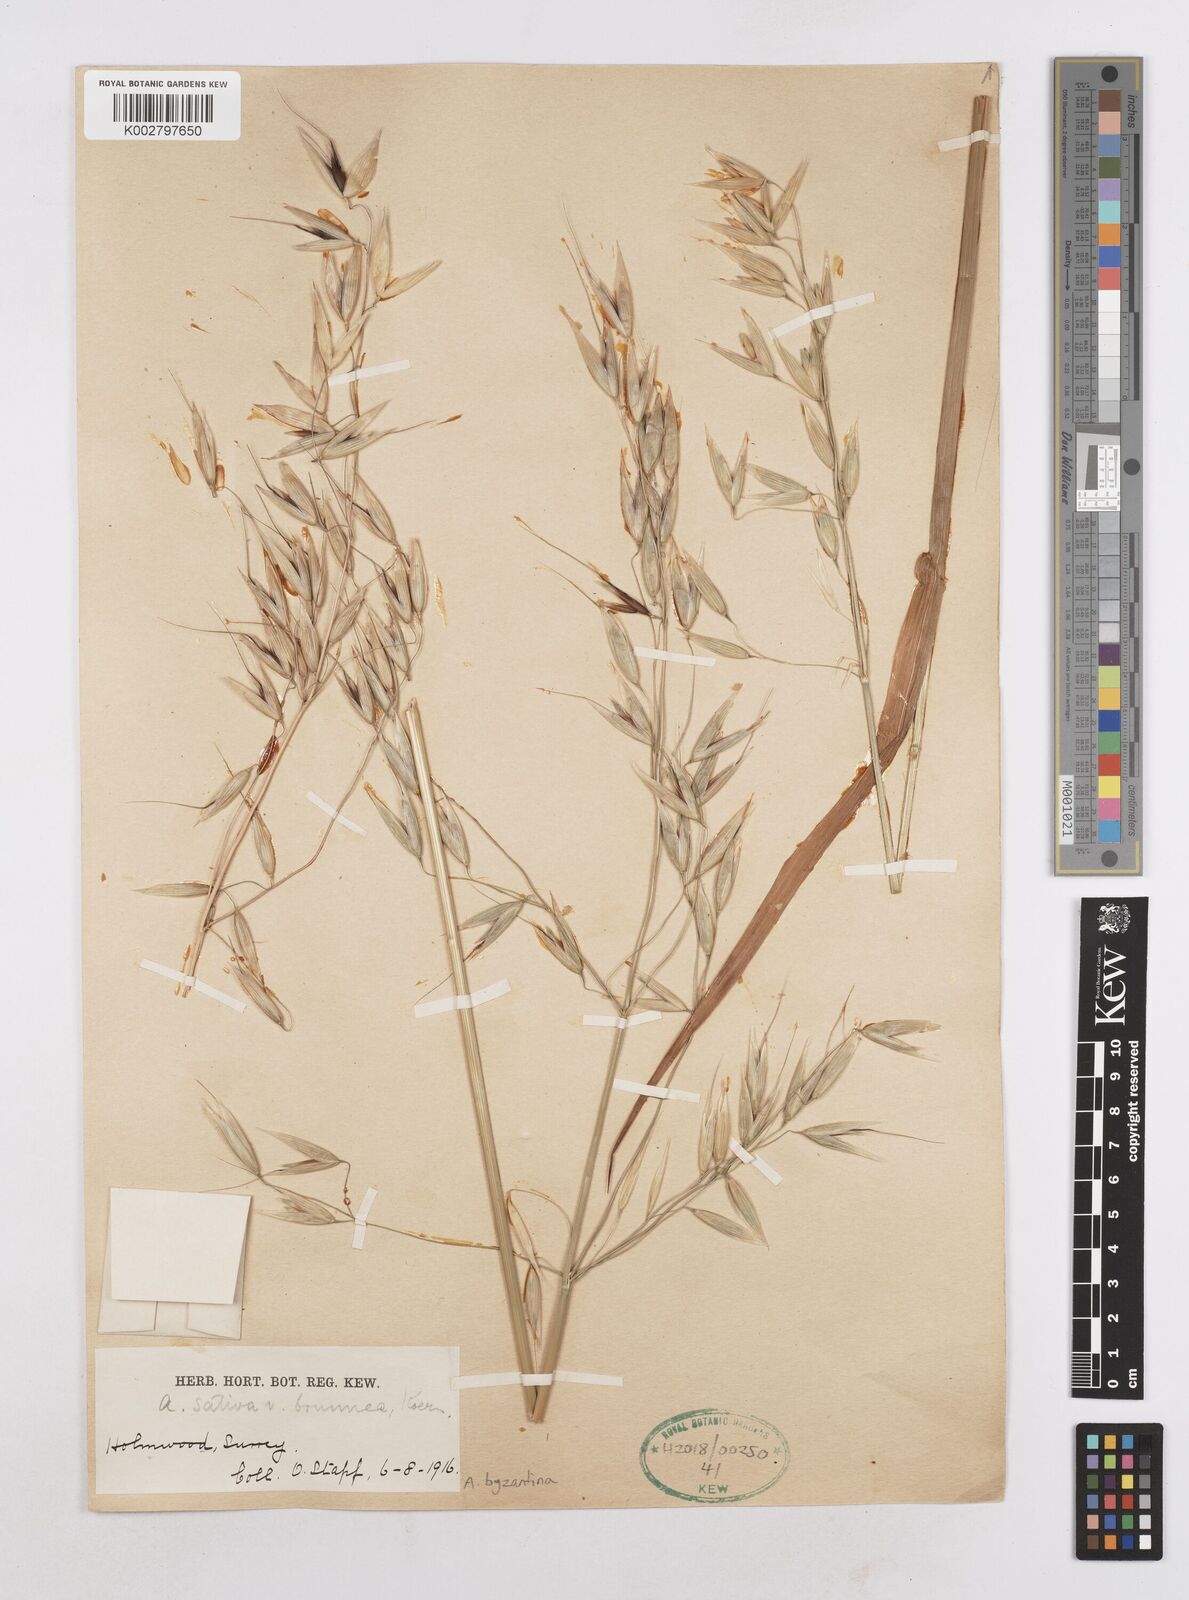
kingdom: Plantae
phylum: Tracheophyta
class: Liliopsida
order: Poales
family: Poaceae
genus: Avena
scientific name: Avena byzantina
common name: Algerian oat
